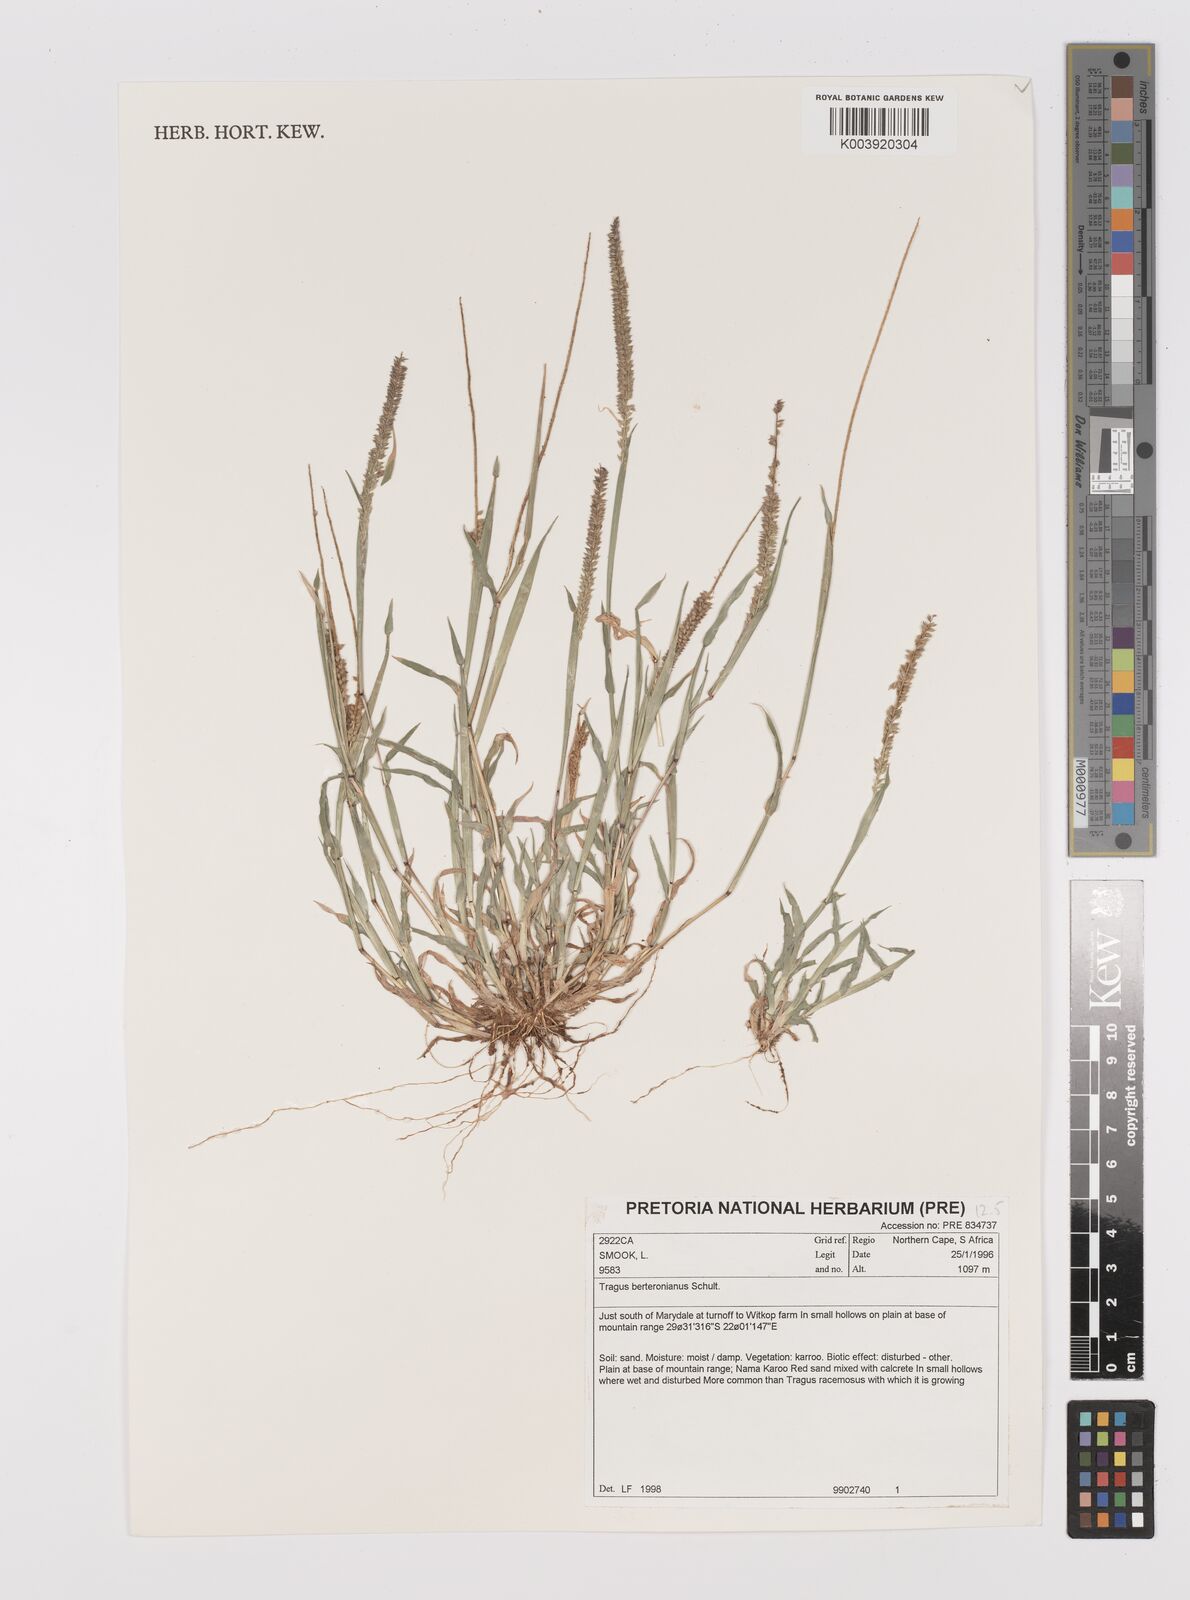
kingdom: Plantae
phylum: Tracheophyta
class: Liliopsida
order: Poales
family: Poaceae
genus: Tragus
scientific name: Tragus berteronianus
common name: African bur-grass
